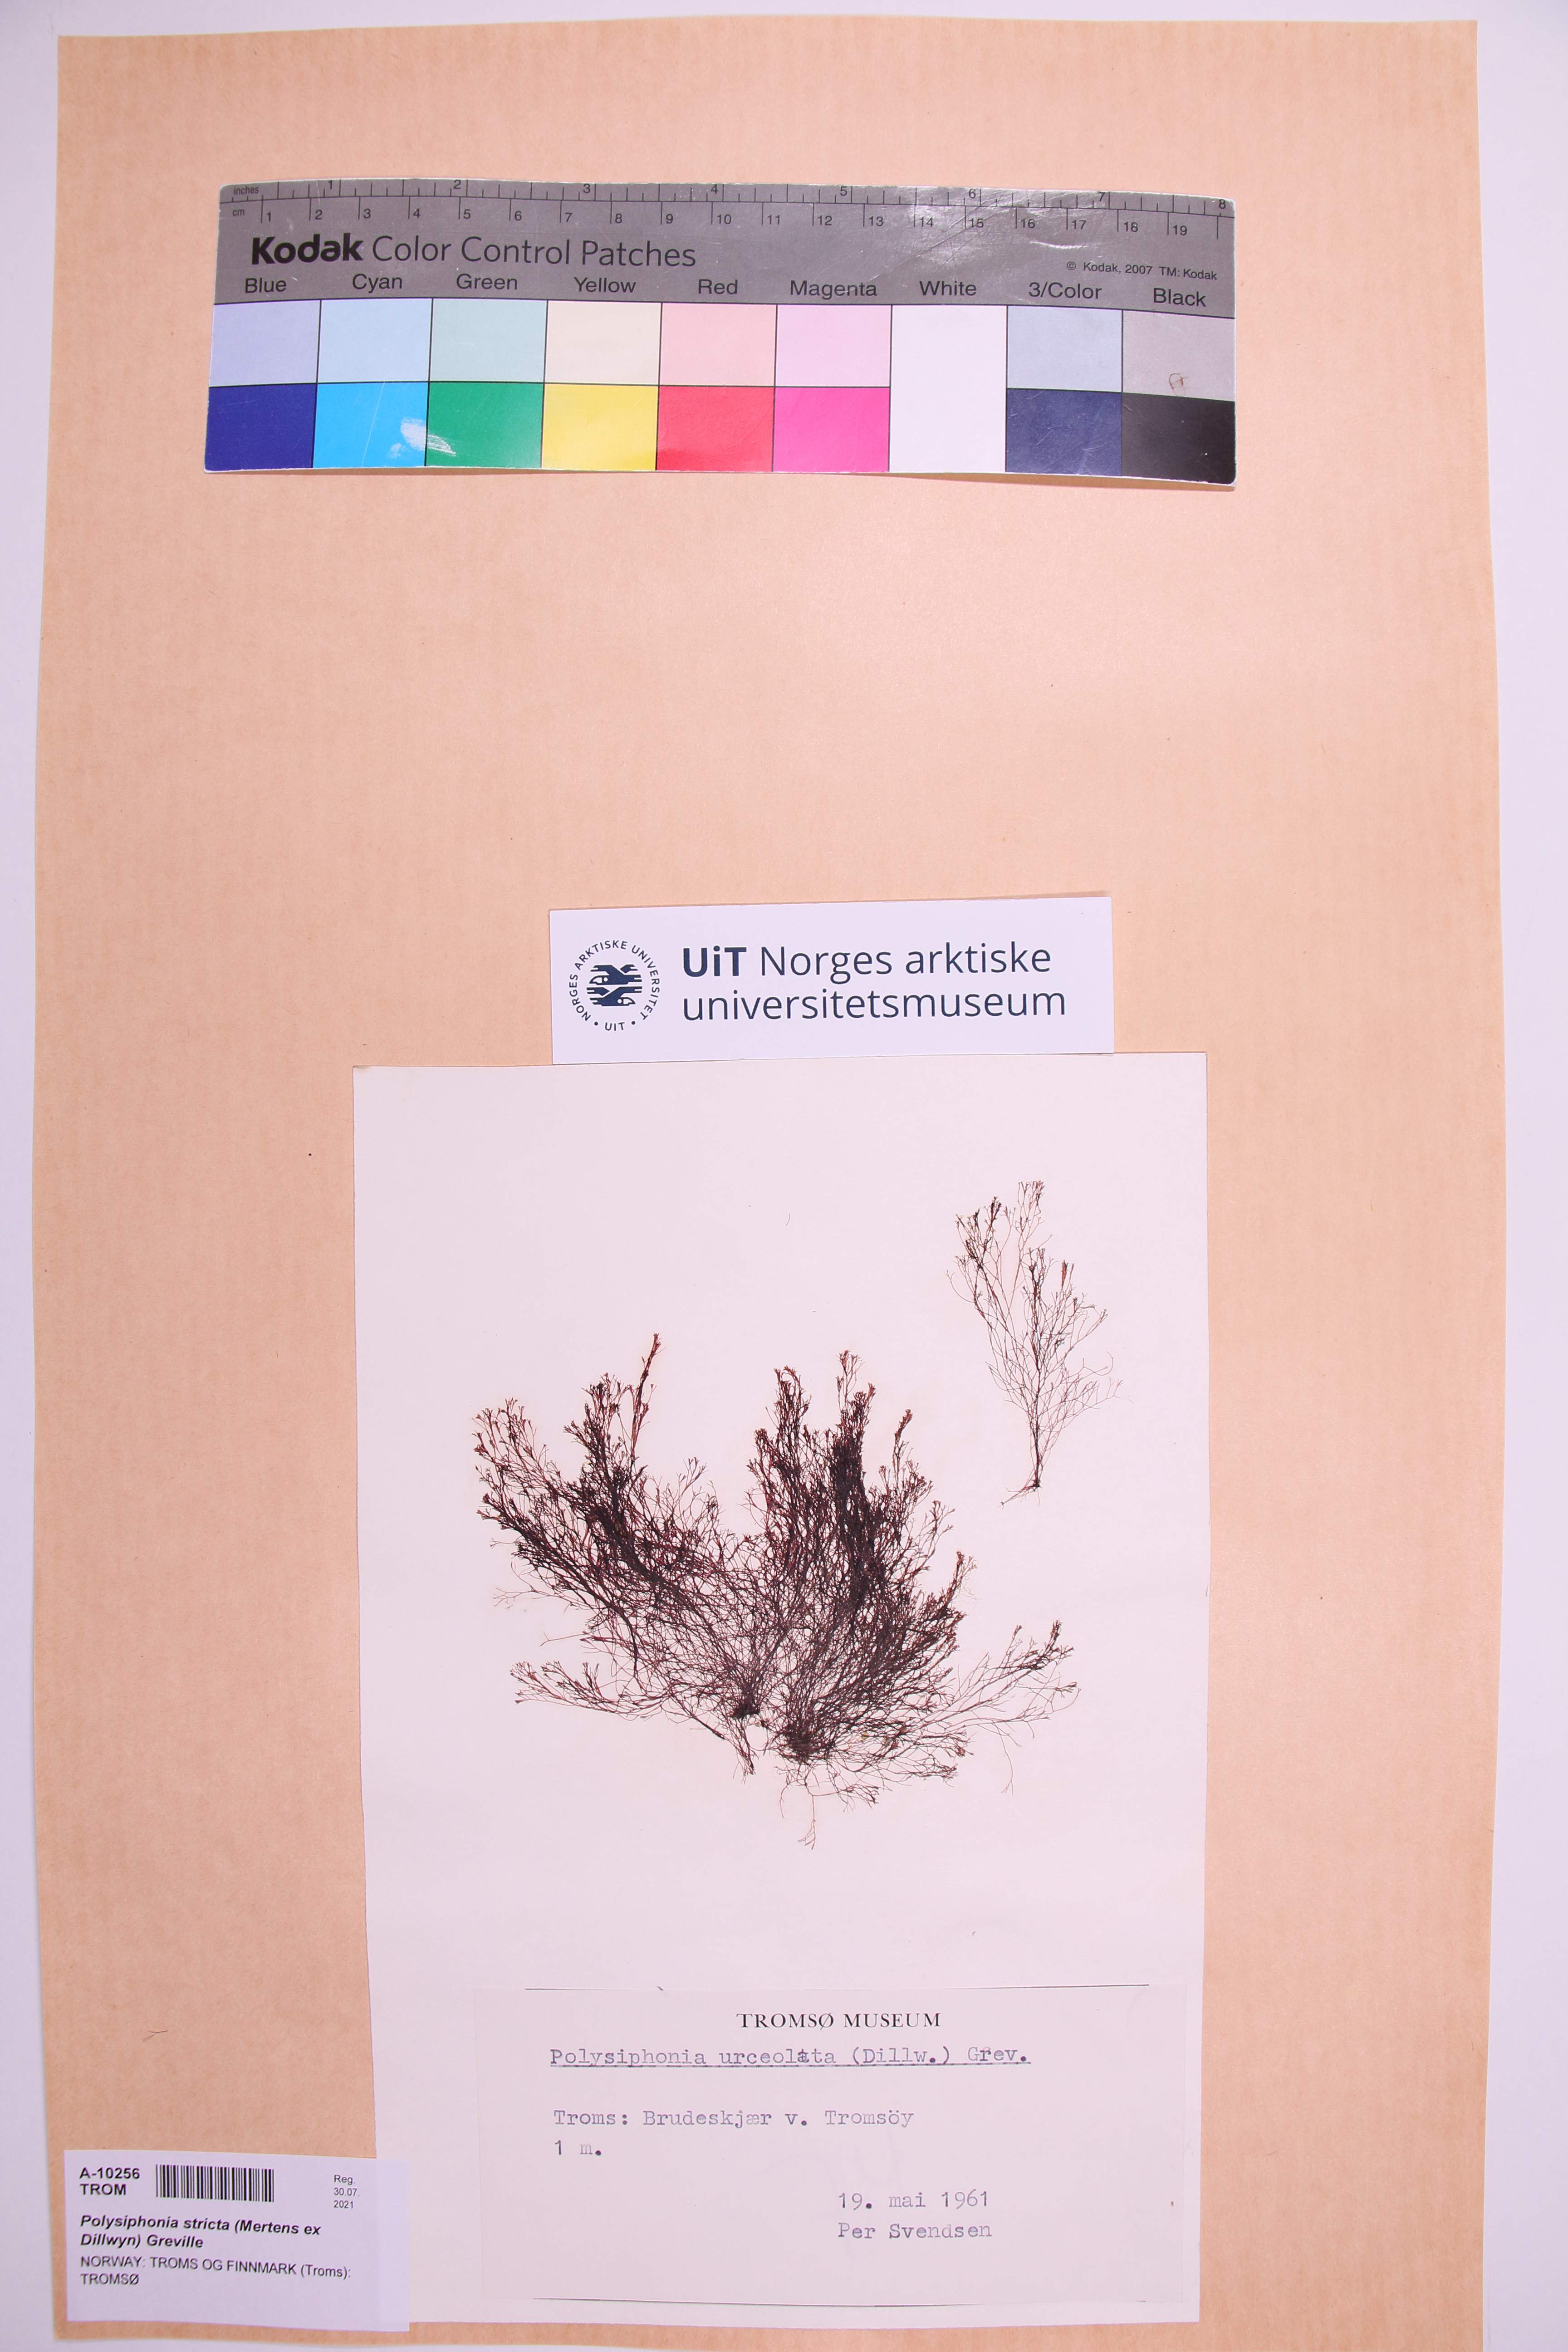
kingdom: Plantae
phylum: Rhodophyta
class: Florideophyceae
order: Ceramiales
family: Rhodomelaceae
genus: Polysiphonia
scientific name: Polysiphonia stricta
